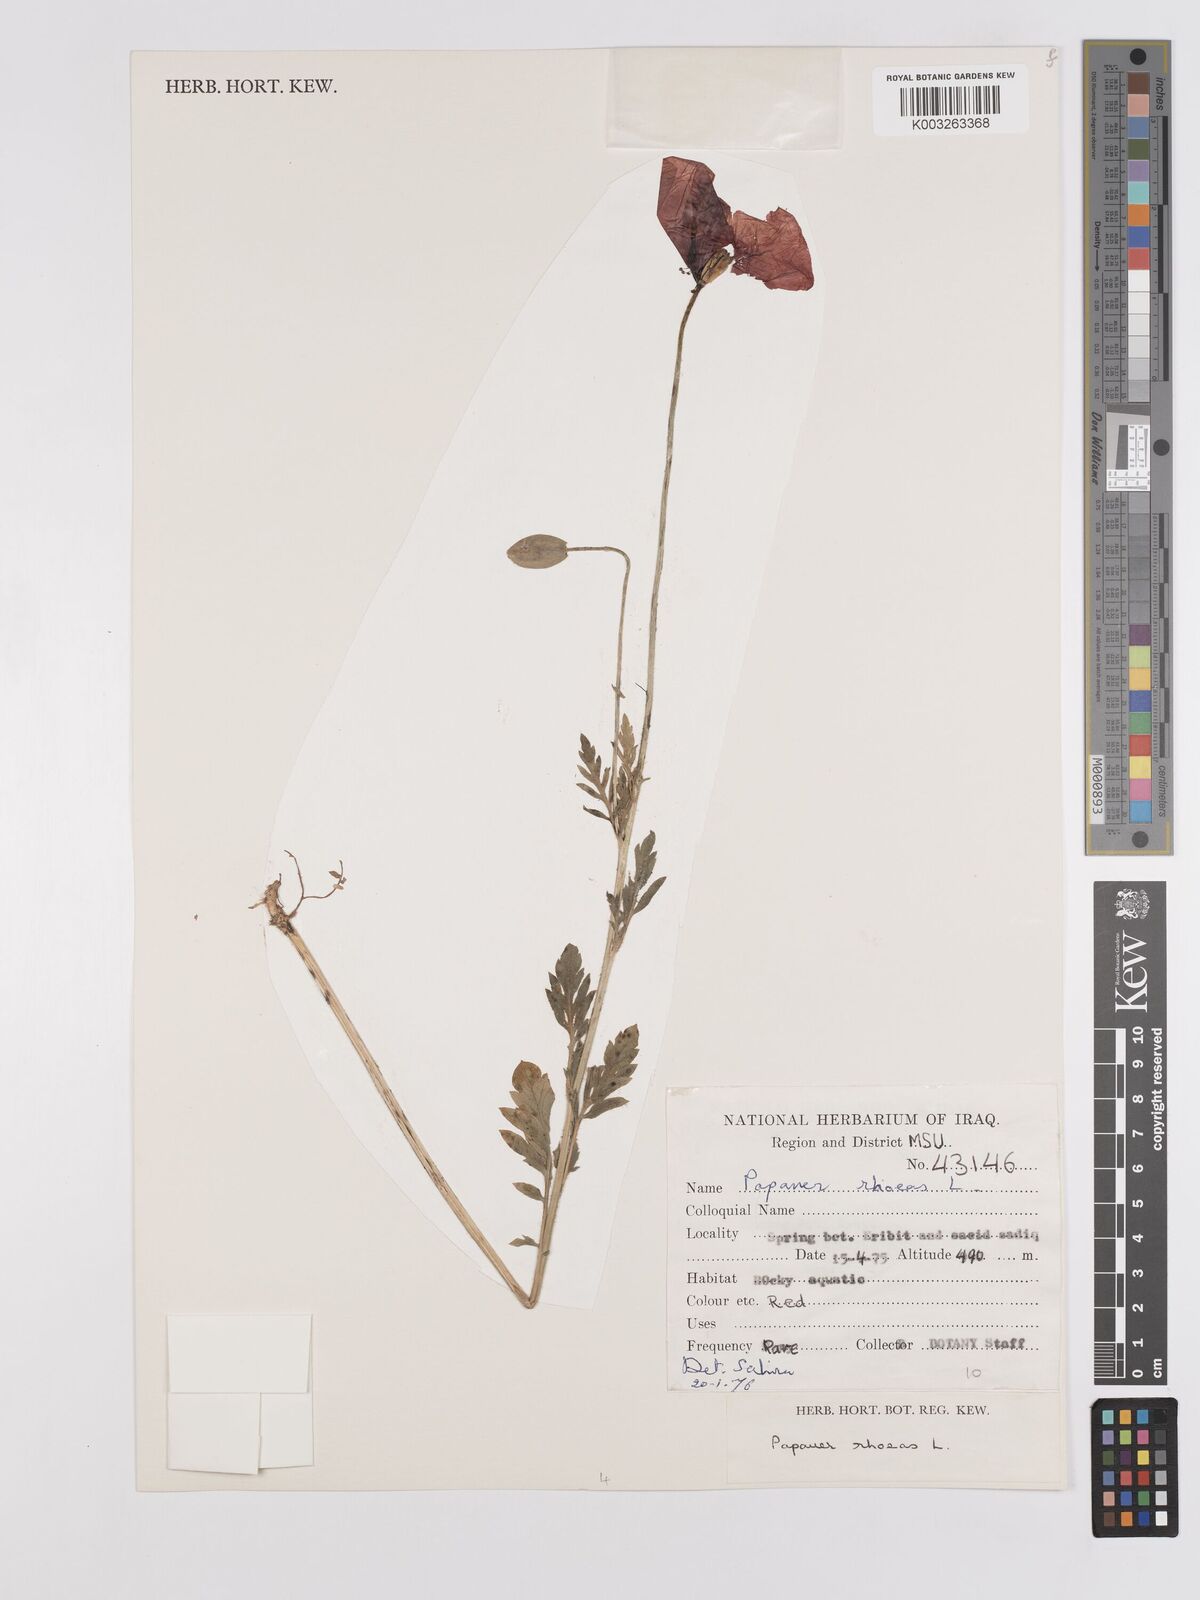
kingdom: Plantae
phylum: Tracheophyta
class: Magnoliopsida
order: Ranunculales
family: Papaveraceae
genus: Papaver
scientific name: Papaver rhoeas
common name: Corn poppy
